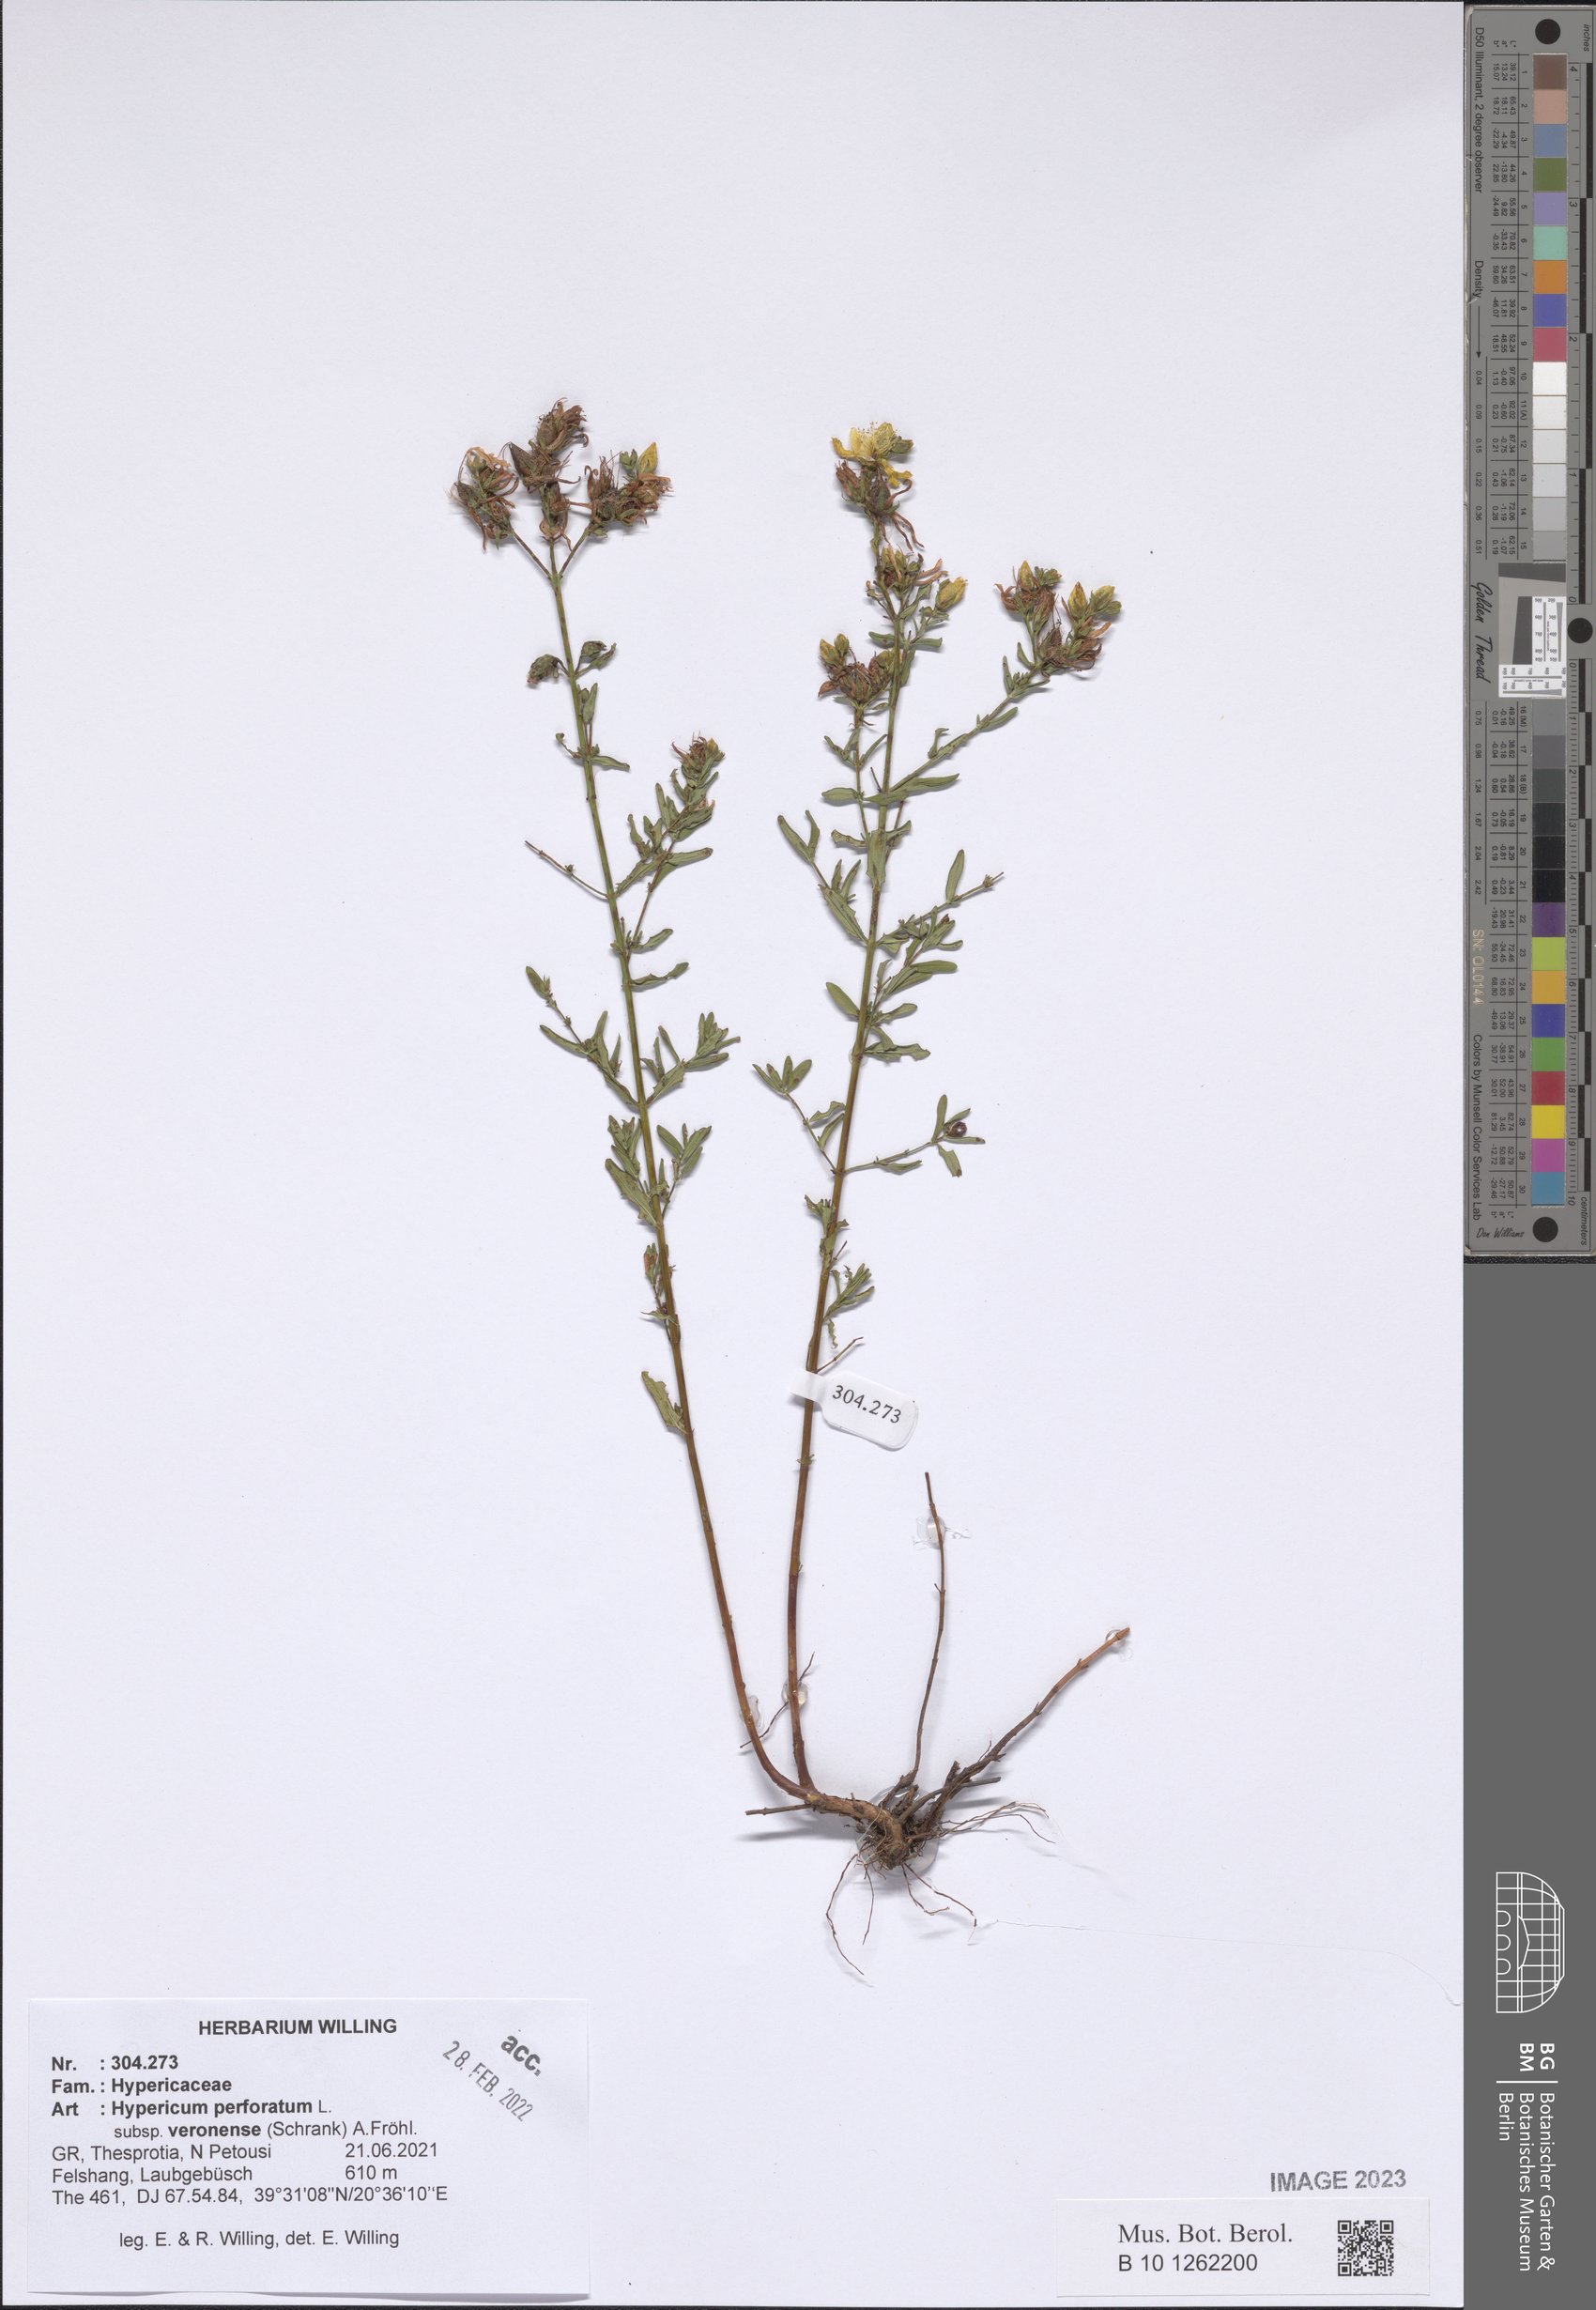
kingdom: Plantae
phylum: Tracheophyta
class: Magnoliopsida
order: Malpighiales
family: Hypericaceae
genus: Hypericum
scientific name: Hypericum veronense
